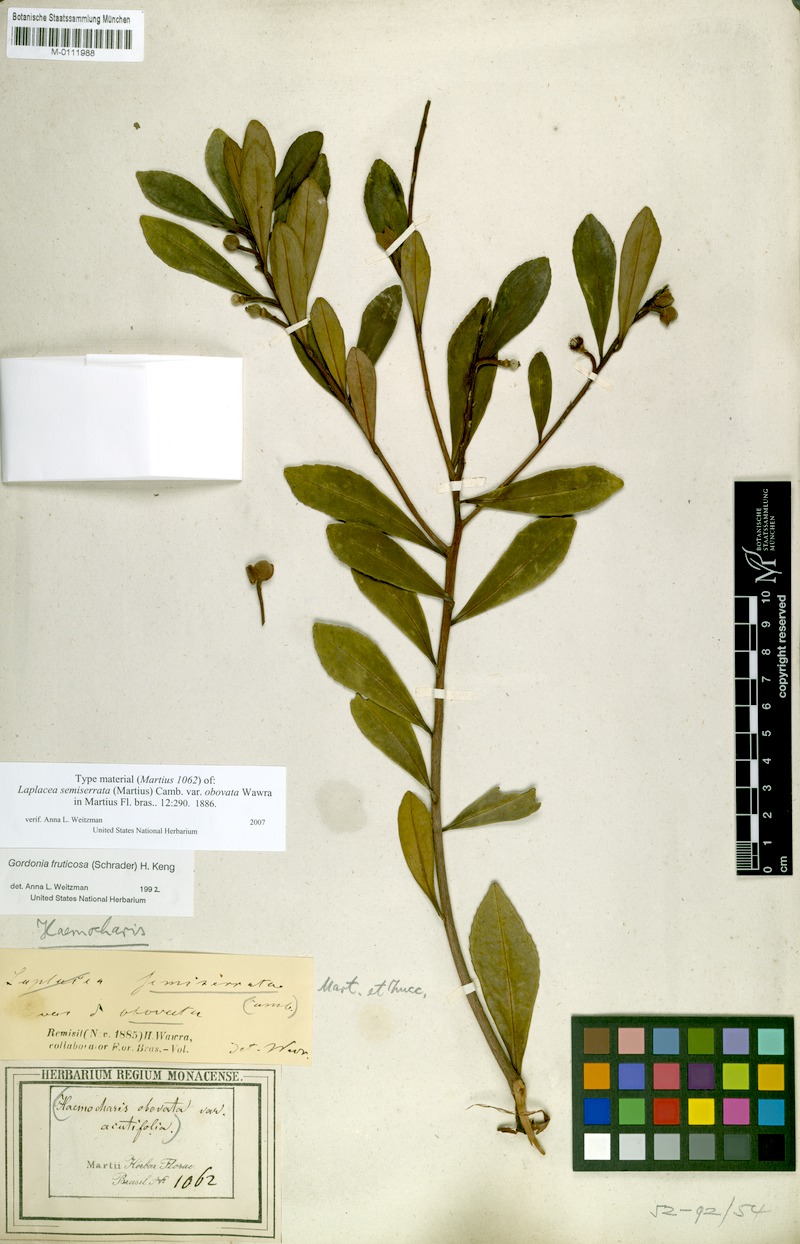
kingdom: Plantae
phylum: Tracheophyta
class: Magnoliopsida
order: Ericales
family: Theaceae
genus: Gordonia
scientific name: Gordonia fruticosa
